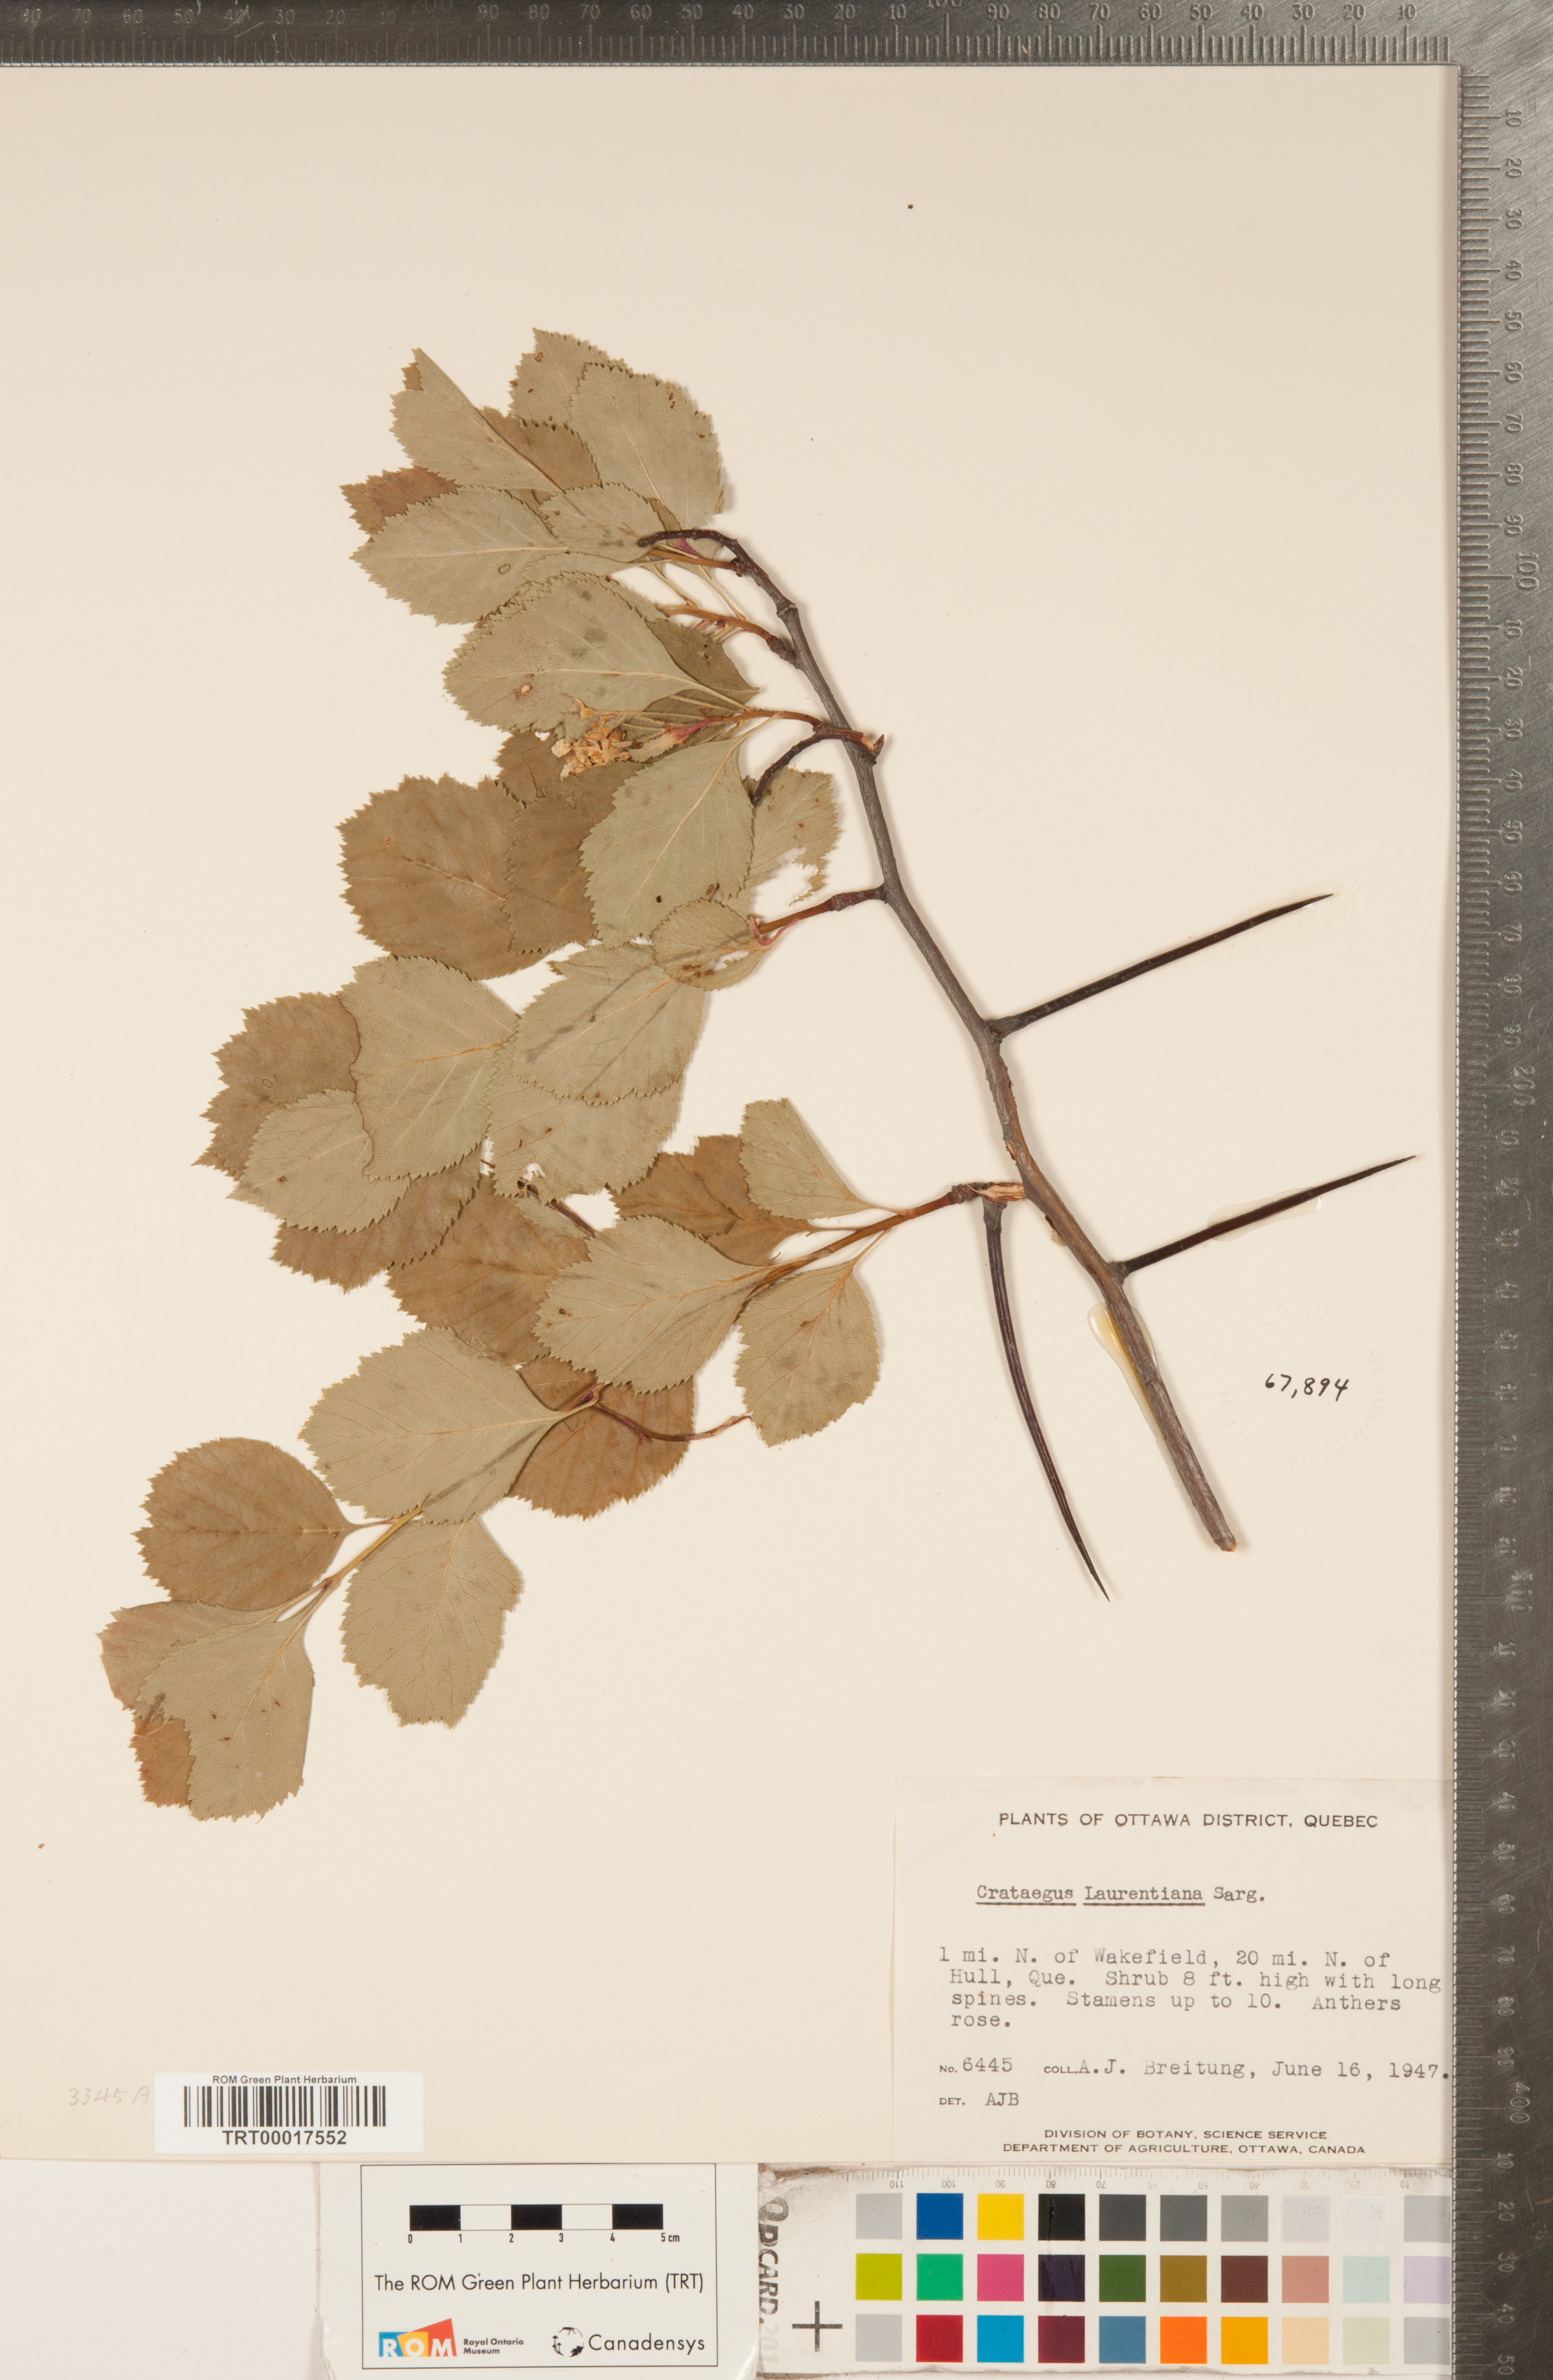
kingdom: Plantae
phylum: Tracheophyta
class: Magnoliopsida
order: Rosales
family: Rosaceae
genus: Crataegus
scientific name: Crataegus jonesiae
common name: Jones' hawthorn
